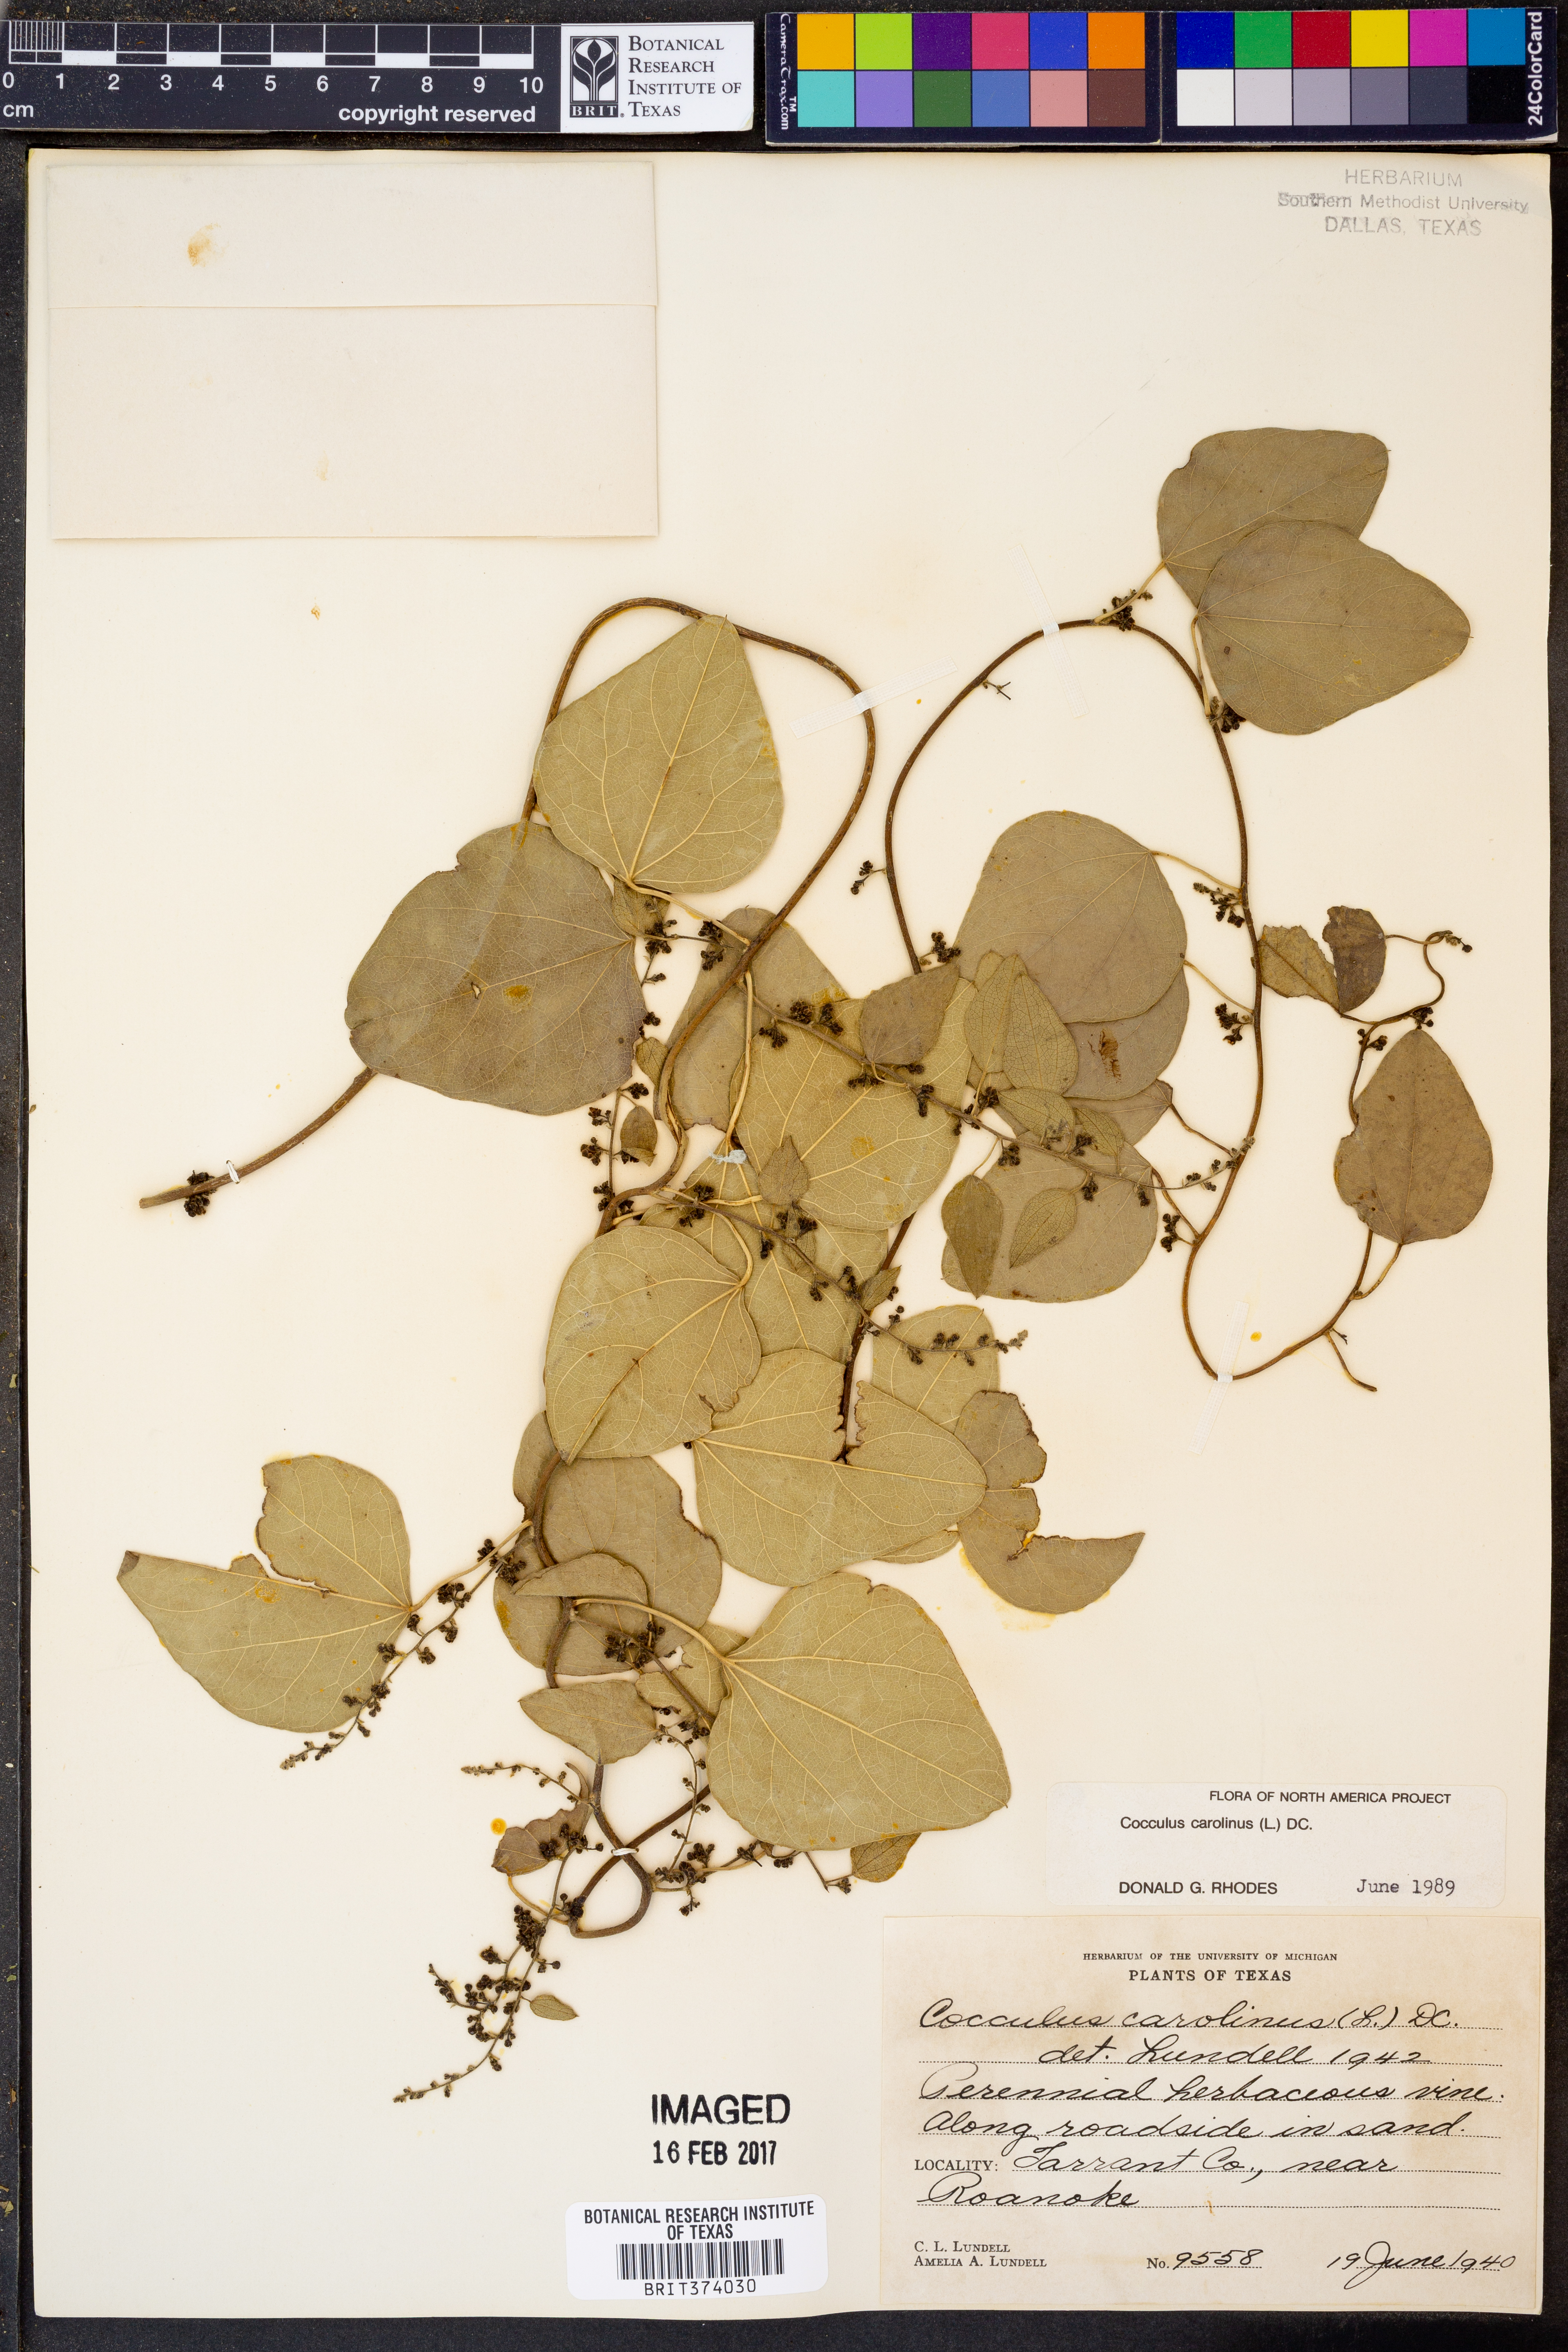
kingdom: Plantae
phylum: Tracheophyta
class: Magnoliopsida
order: Ranunculales
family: Menispermaceae
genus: Cocculus
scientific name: Cocculus carolinus
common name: Carolina moonseed
